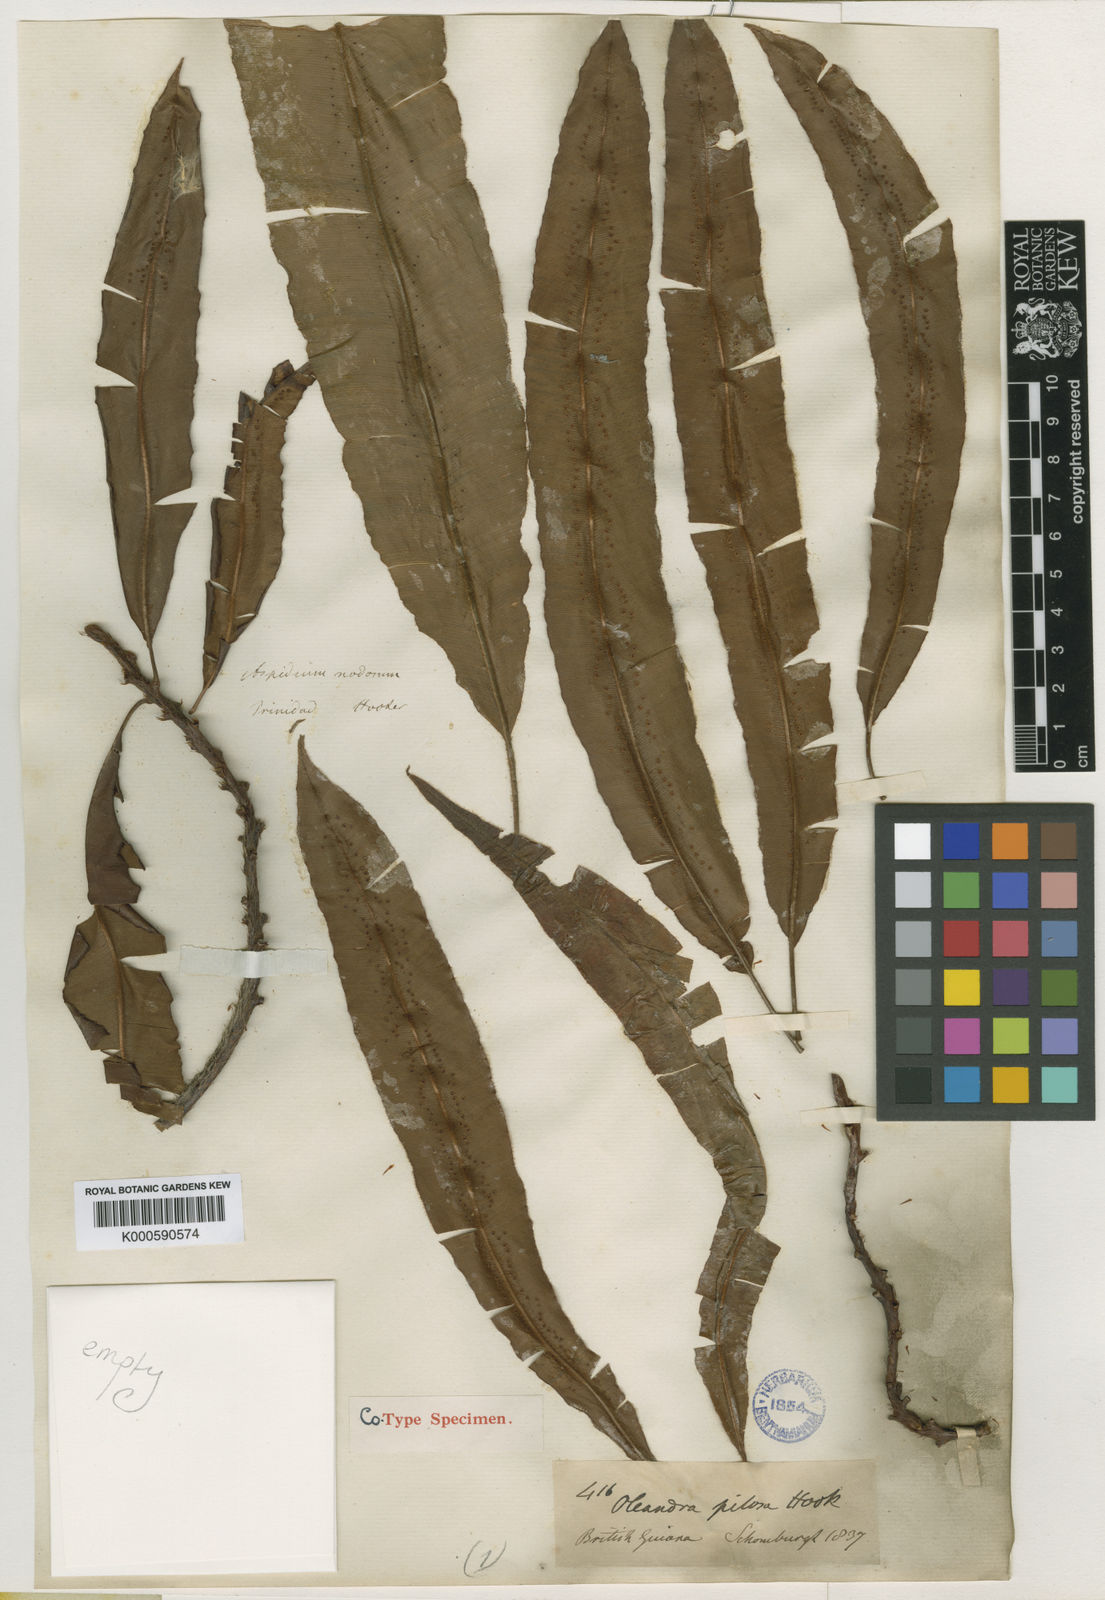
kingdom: Plantae
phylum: Tracheophyta
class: Polypodiopsida
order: Polypodiales
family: Oleandraceae
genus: Oleandra
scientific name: Oleandra pilosa
